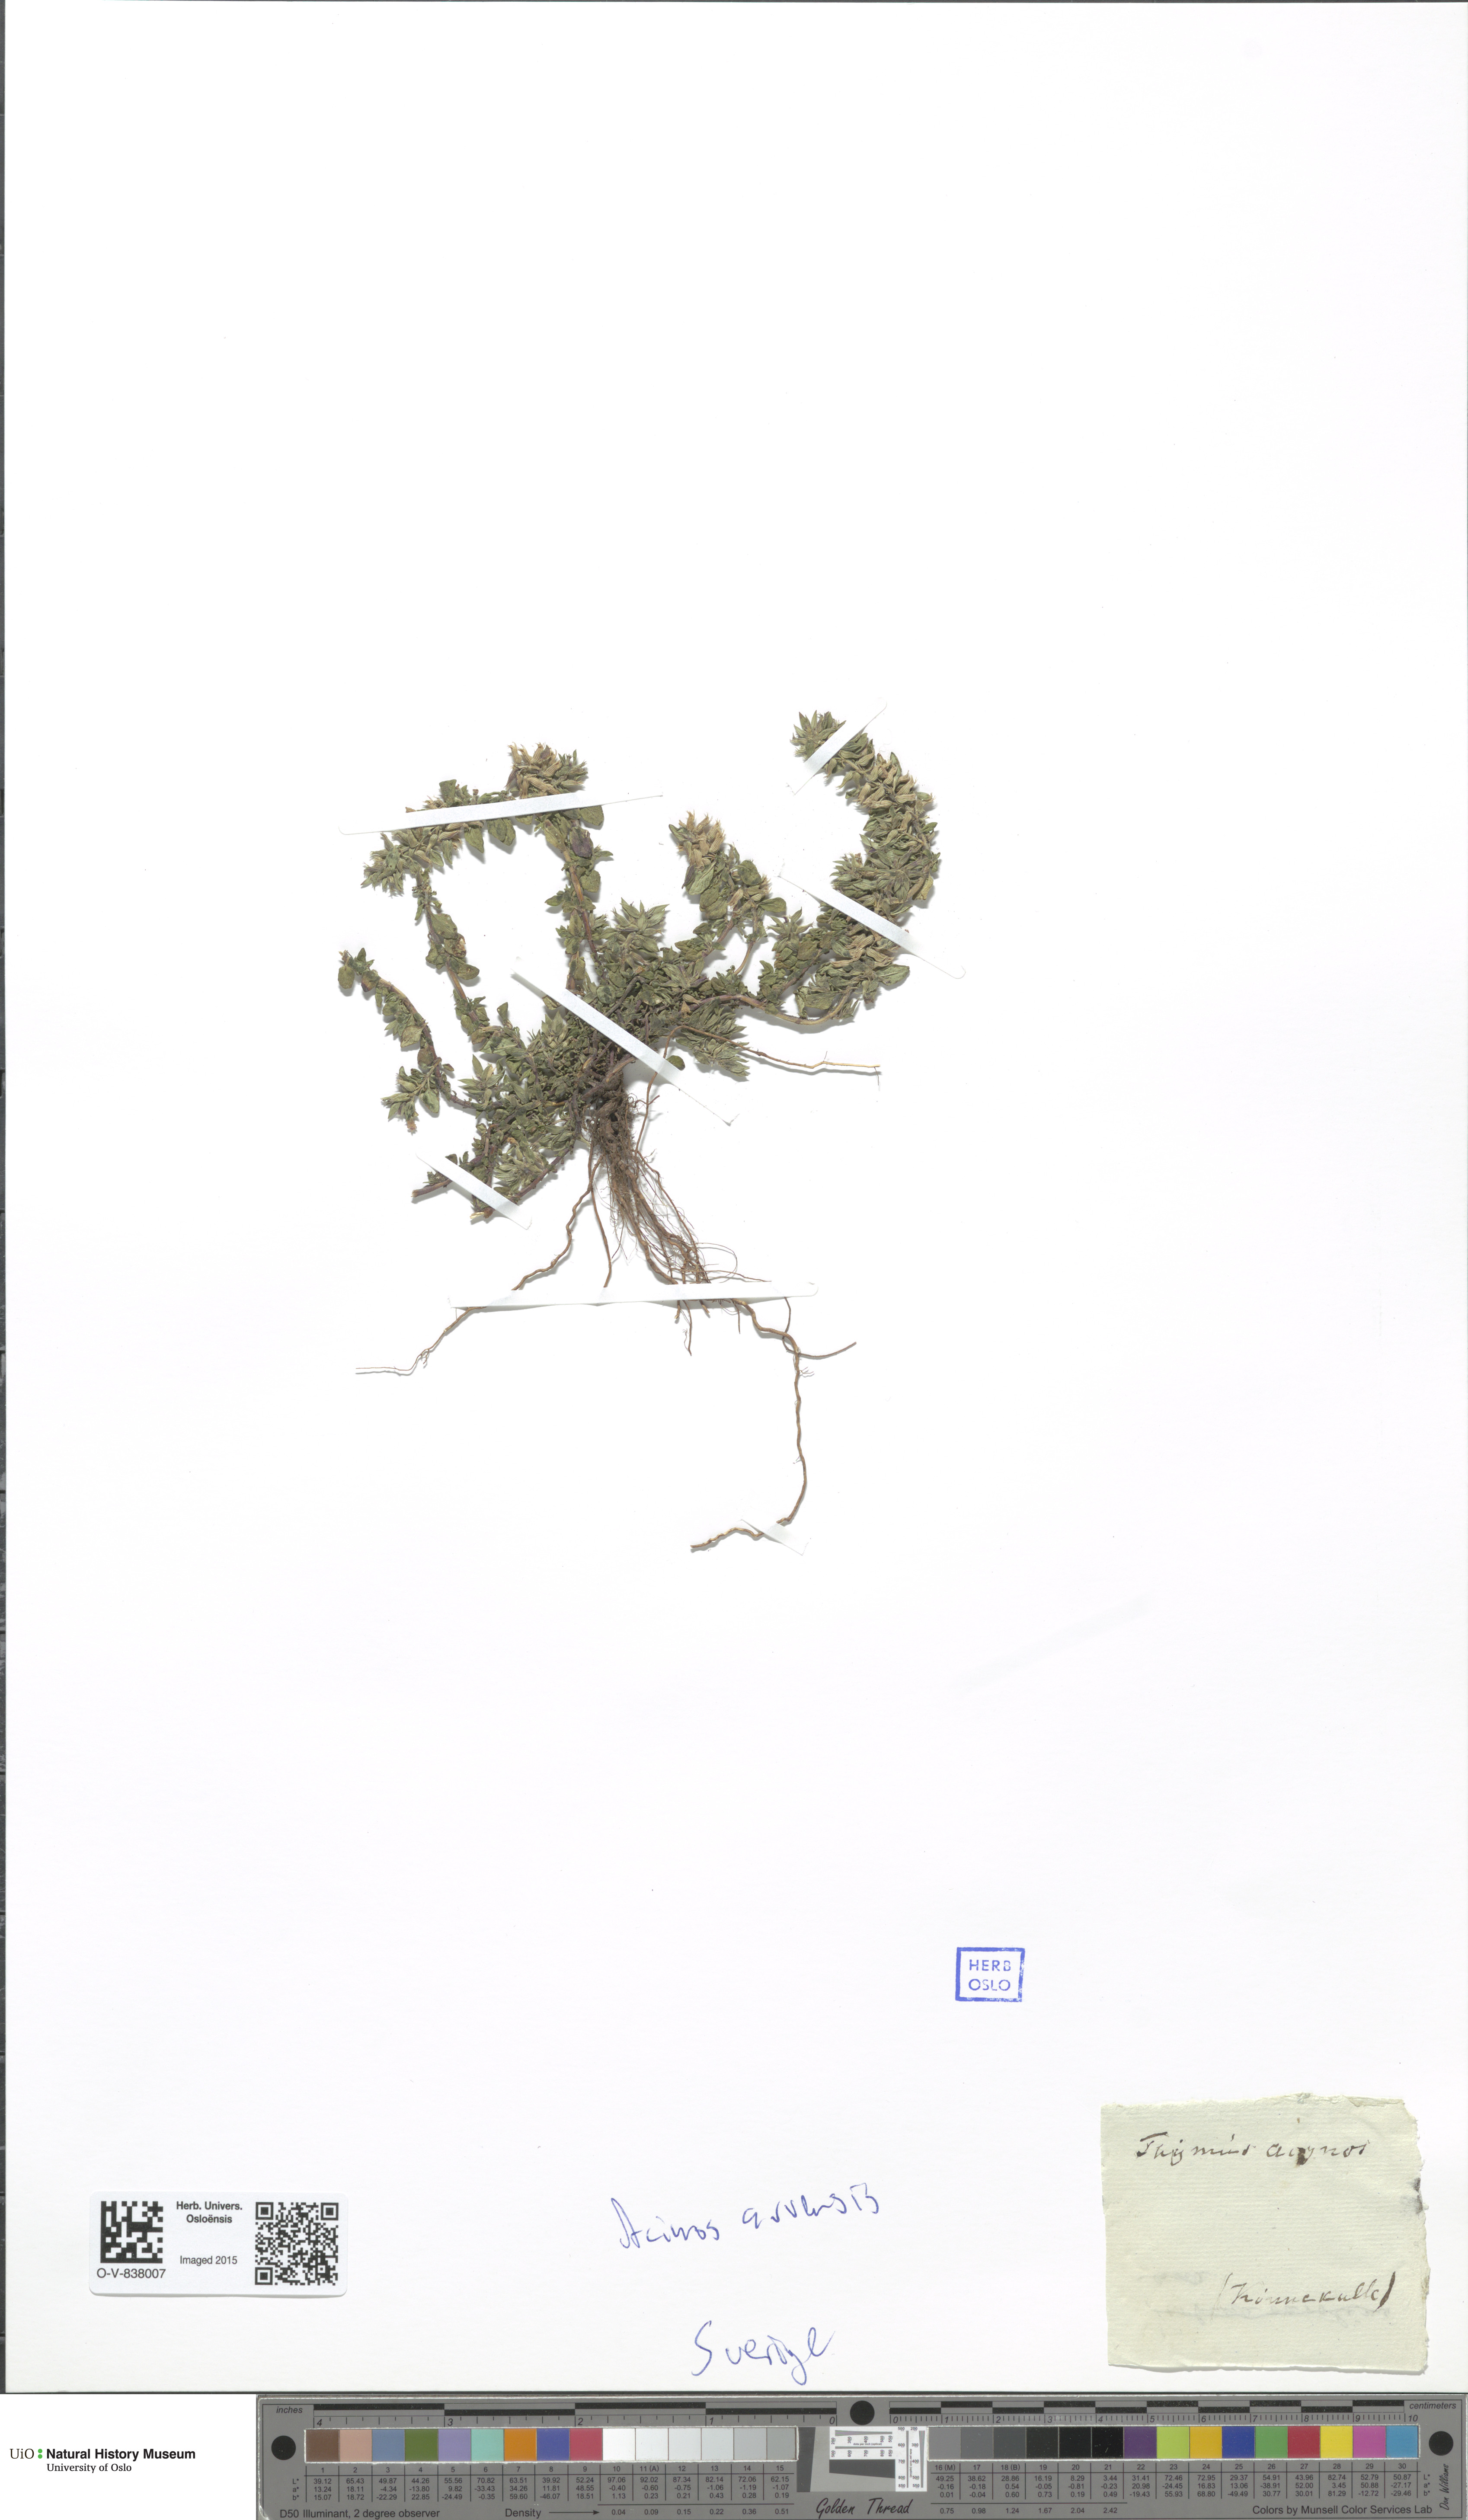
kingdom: Plantae
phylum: Tracheophyta
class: Magnoliopsida
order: Lamiales
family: Lamiaceae
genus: Clinopodium
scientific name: Clinopodium acinos
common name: Basil thyme
